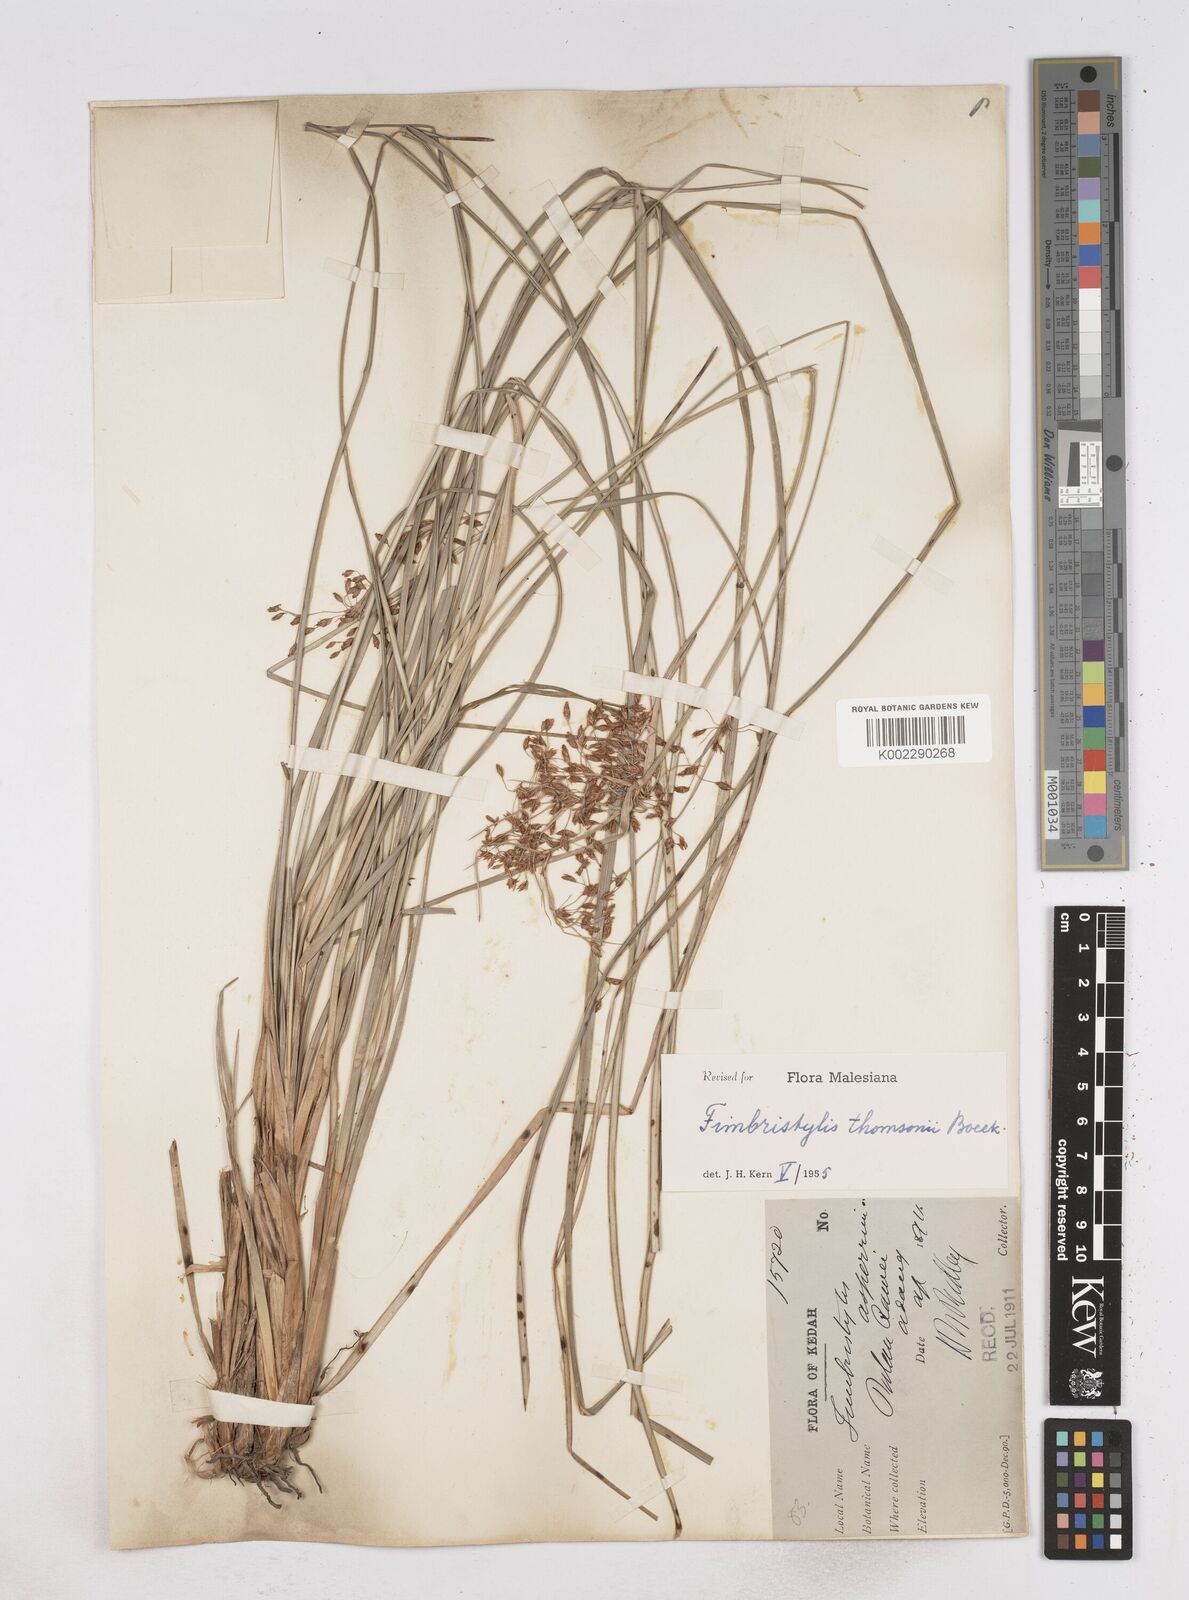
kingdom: Plantae
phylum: Tracheophyta
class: Liliopsida
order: Poales
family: Cyperaceae
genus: Fimbristylis
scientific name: Fimbristylis thomsonii
